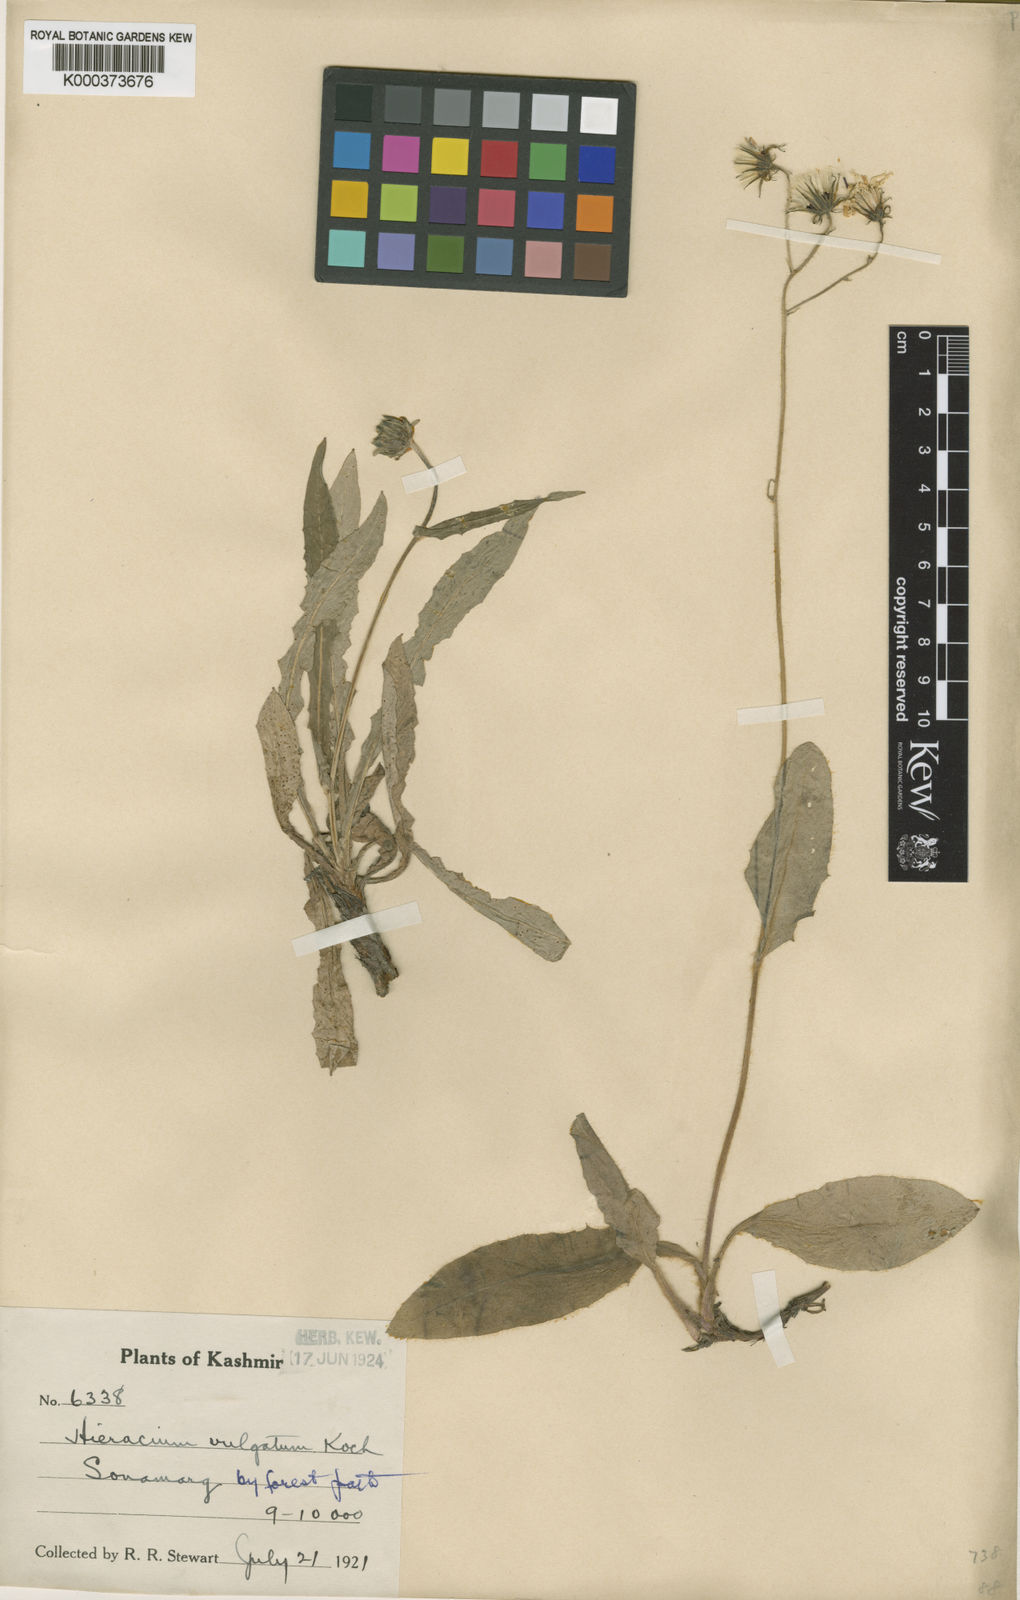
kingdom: Plantae
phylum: Tracheophyta
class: Magnoliopsida
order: Asterales
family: Asteraceae
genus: Hieracium
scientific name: Hieracium lachenalii
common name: Common hawkweed
